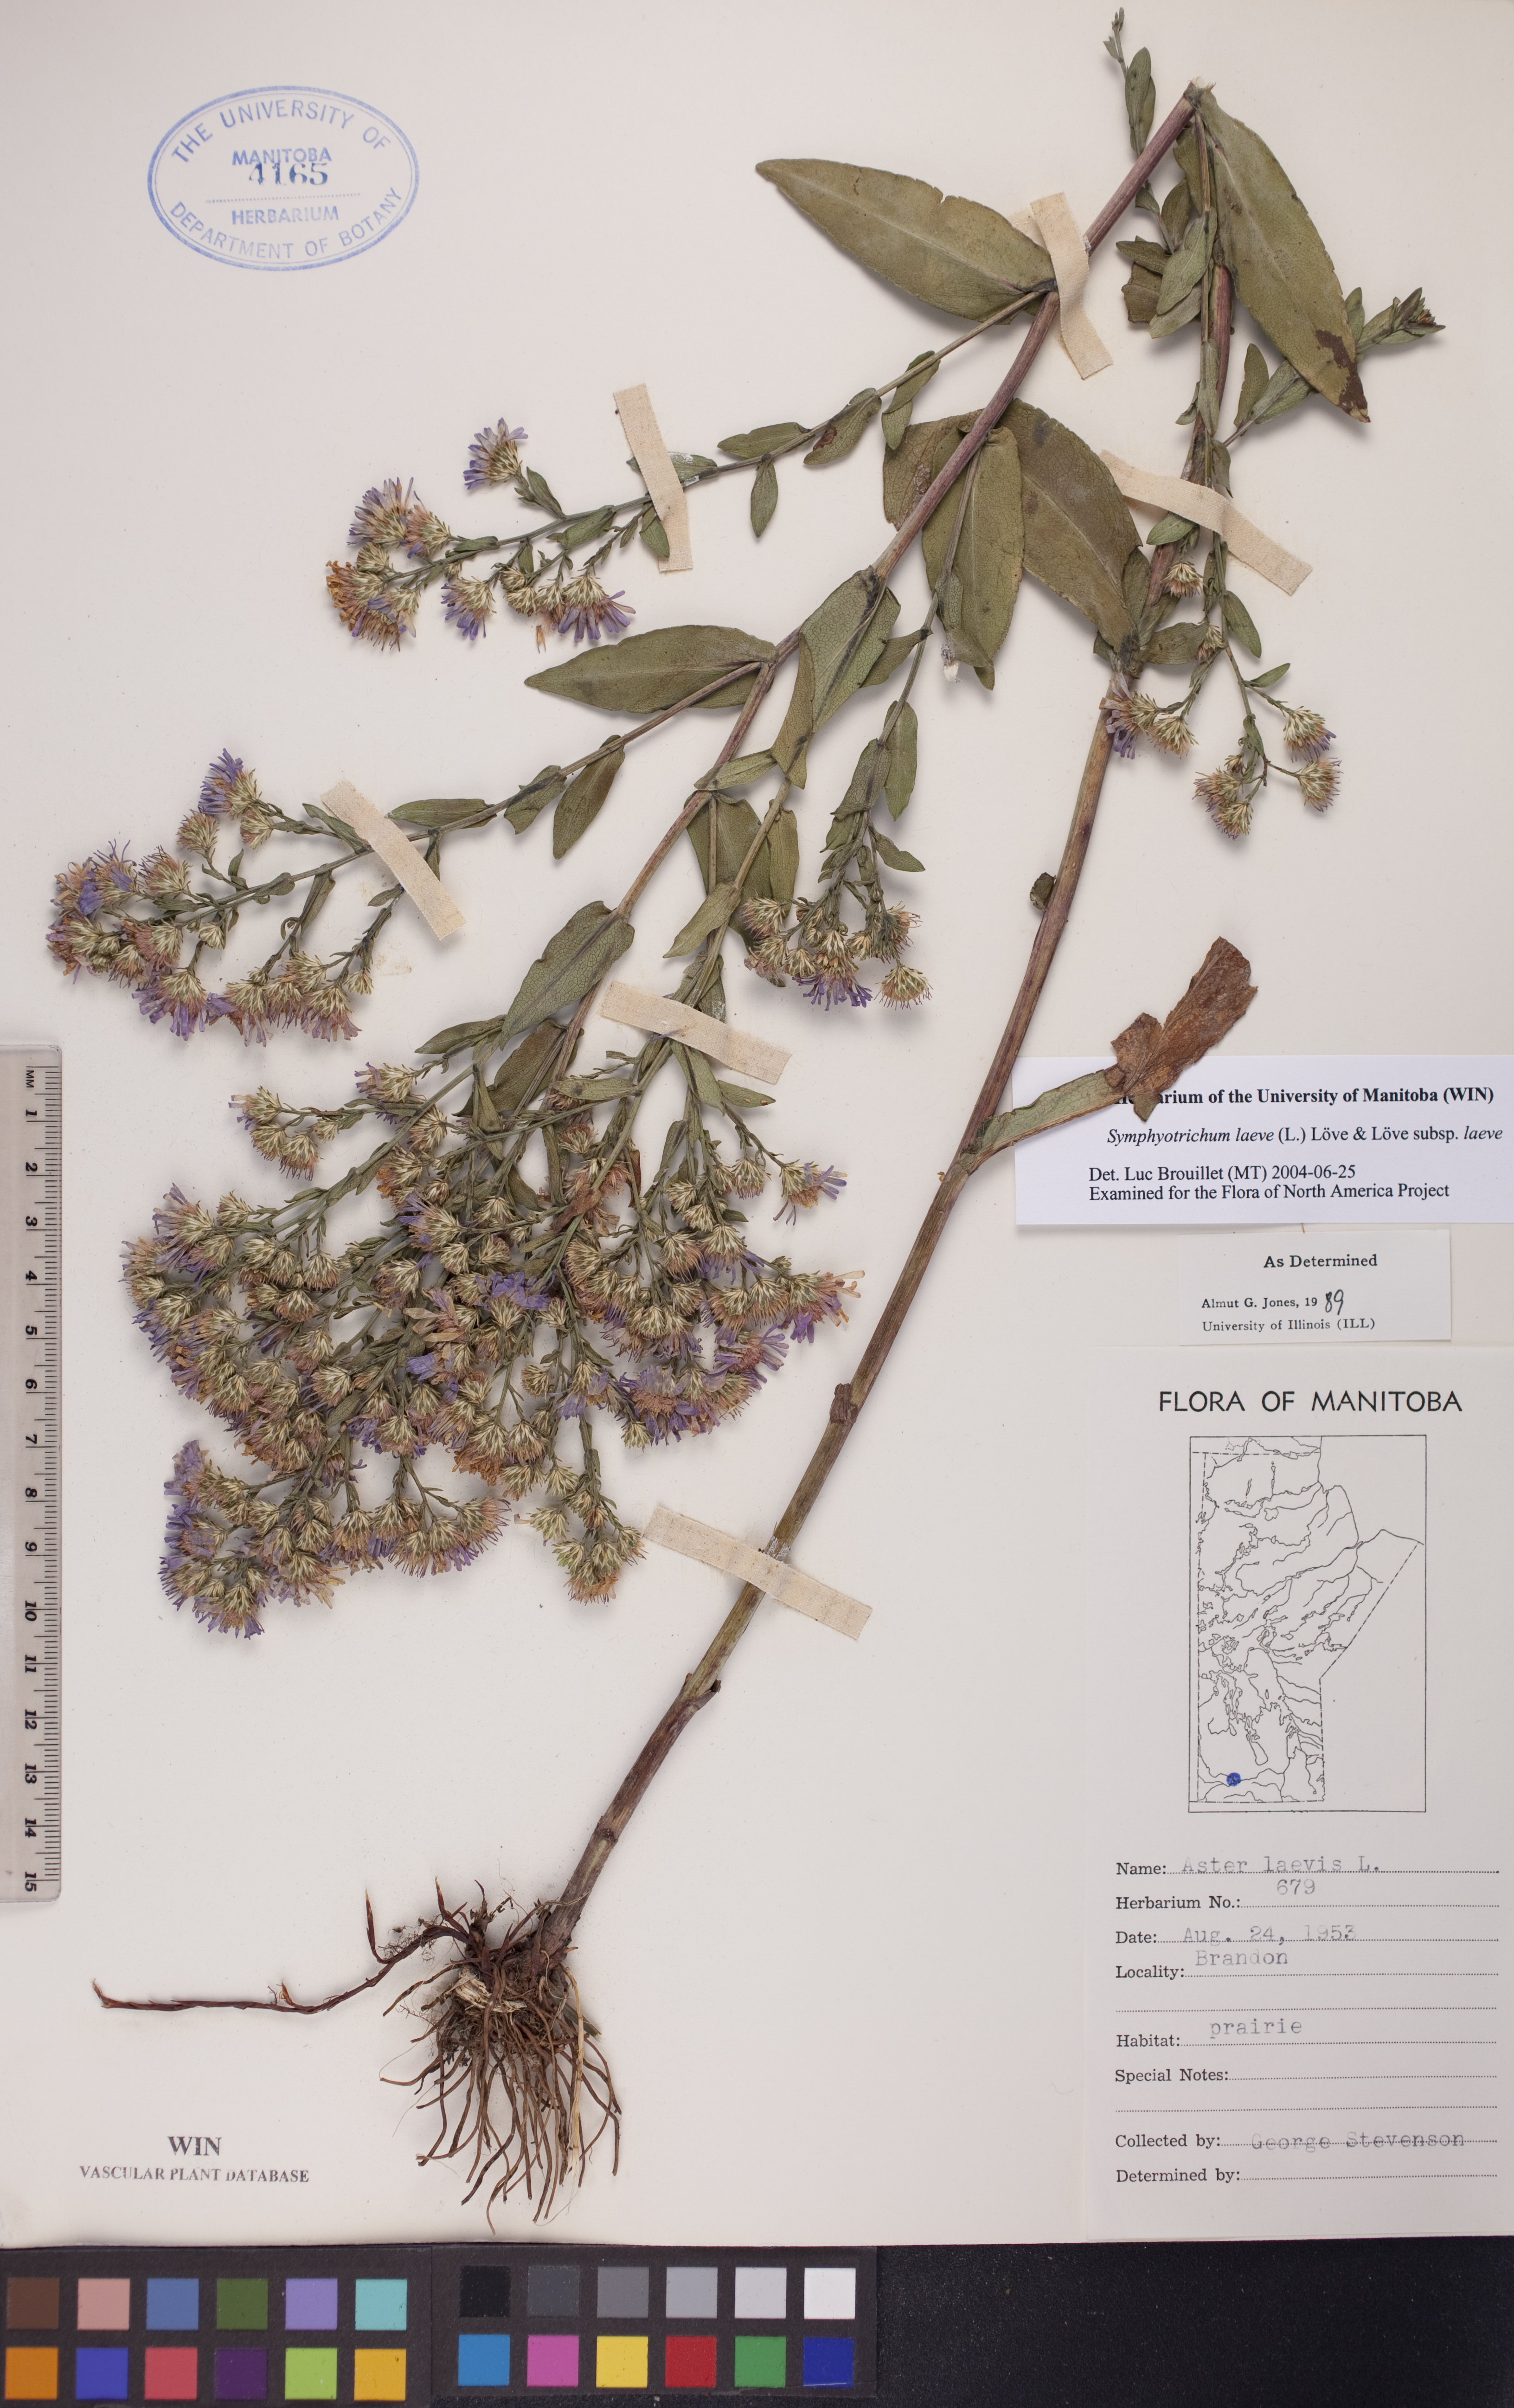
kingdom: Plantae
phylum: Tracheophyta
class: Magnoliopsida
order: Asterales
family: Asteraceae
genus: Symphyotrichum
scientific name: Symphyotrichum laeve
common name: Glaucous aster
